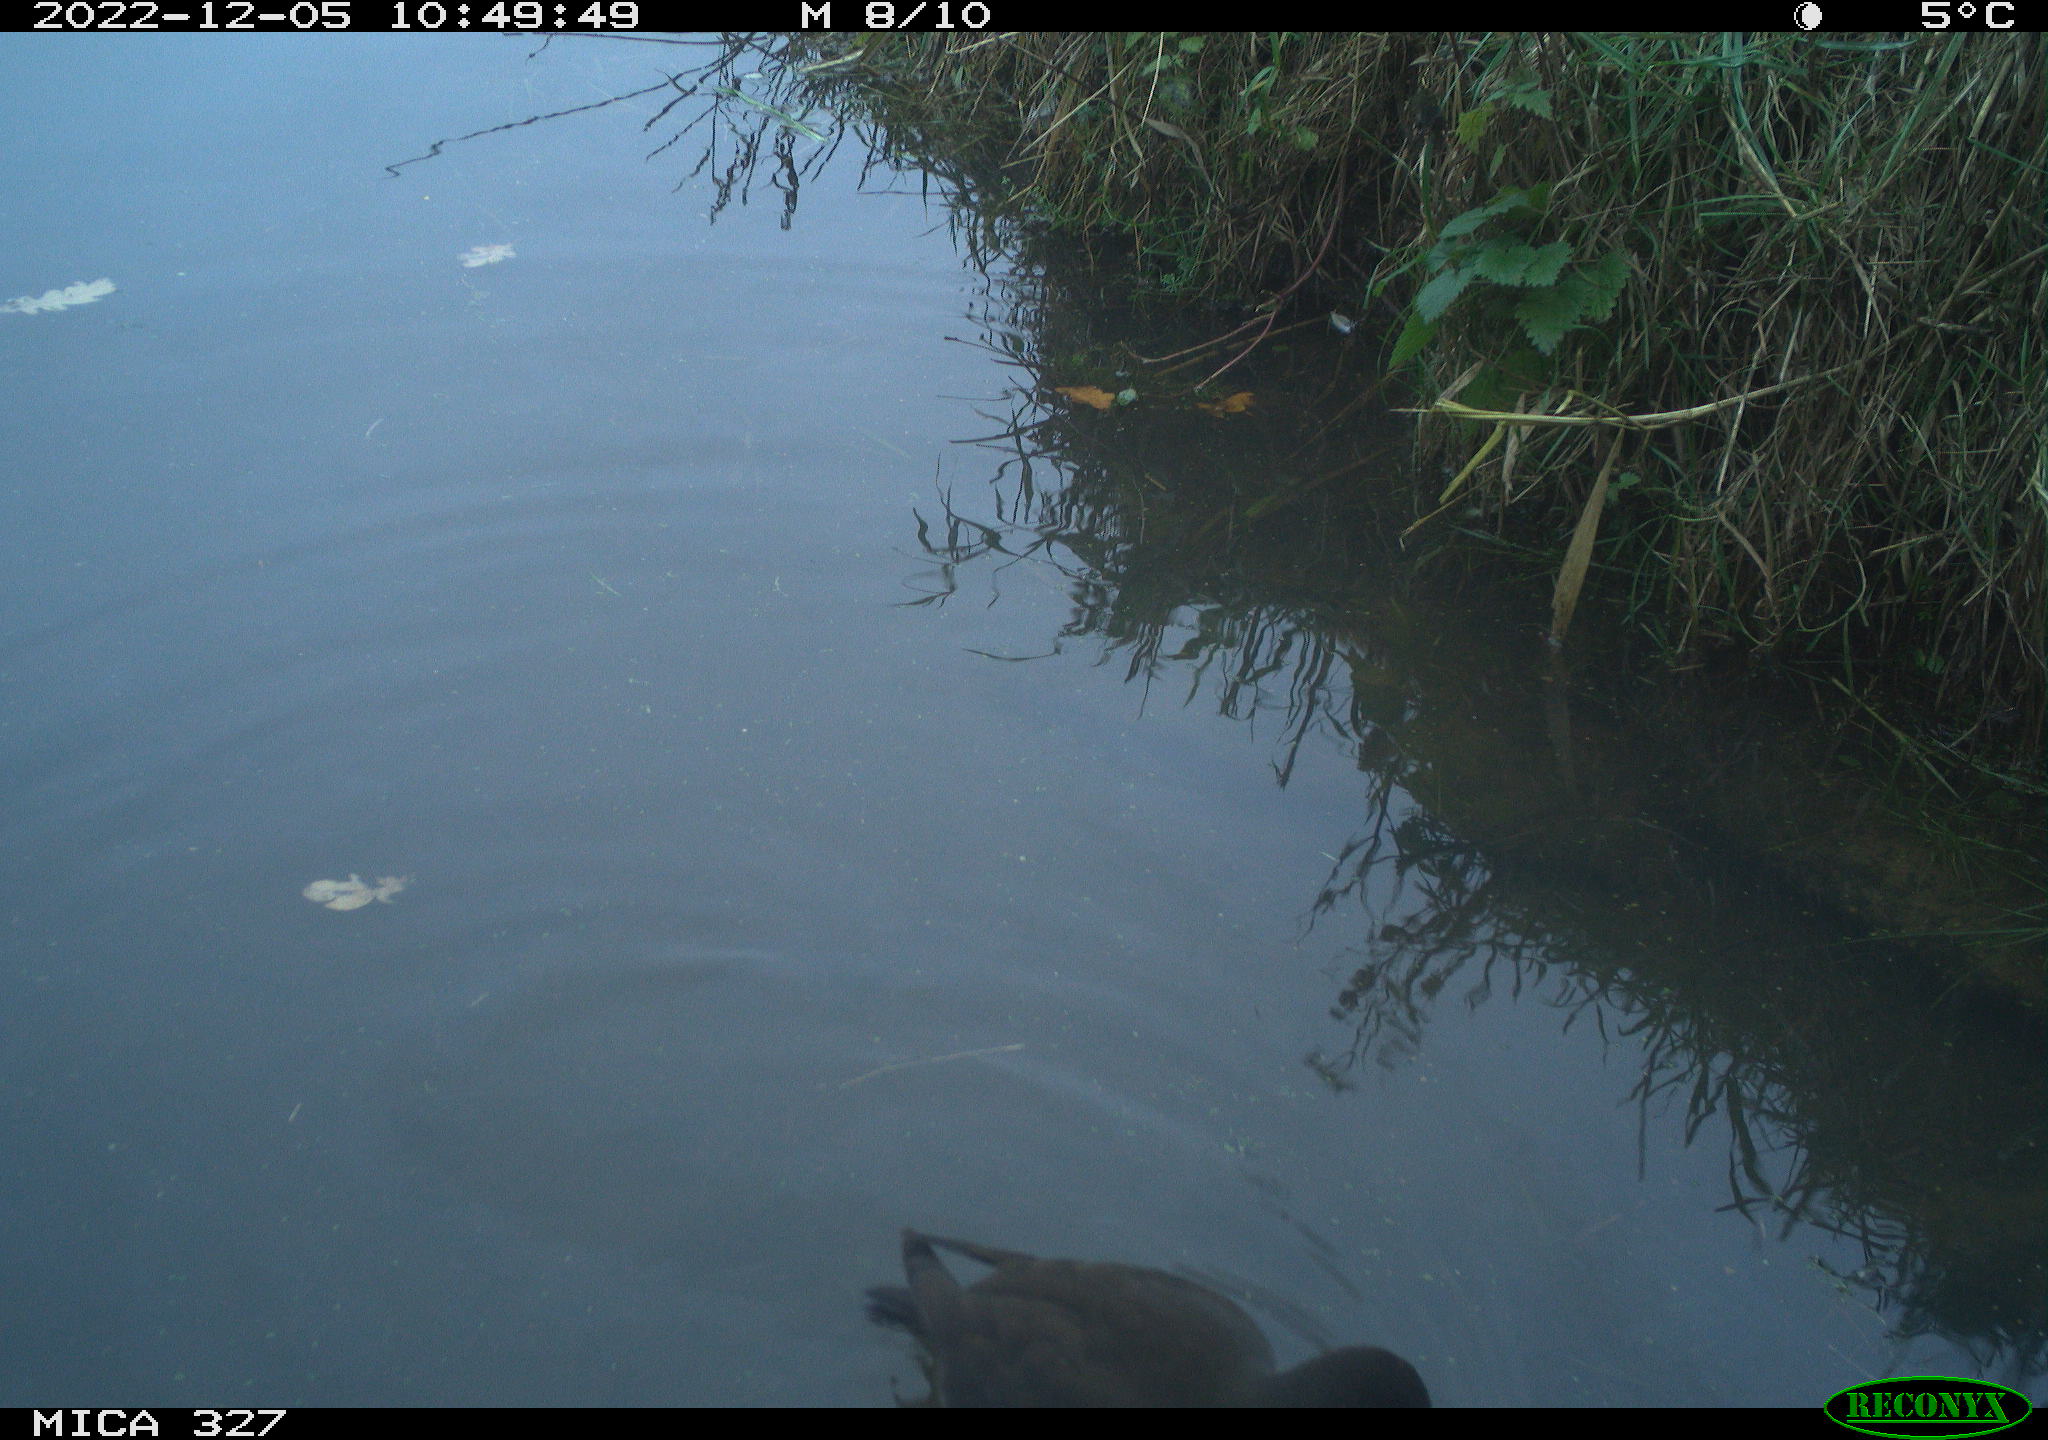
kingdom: Animalia
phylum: Chordata
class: Aves
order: Gruiformes
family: Rallidae
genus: Gallinula
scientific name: Gallinula chloropus
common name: Common moorhen
